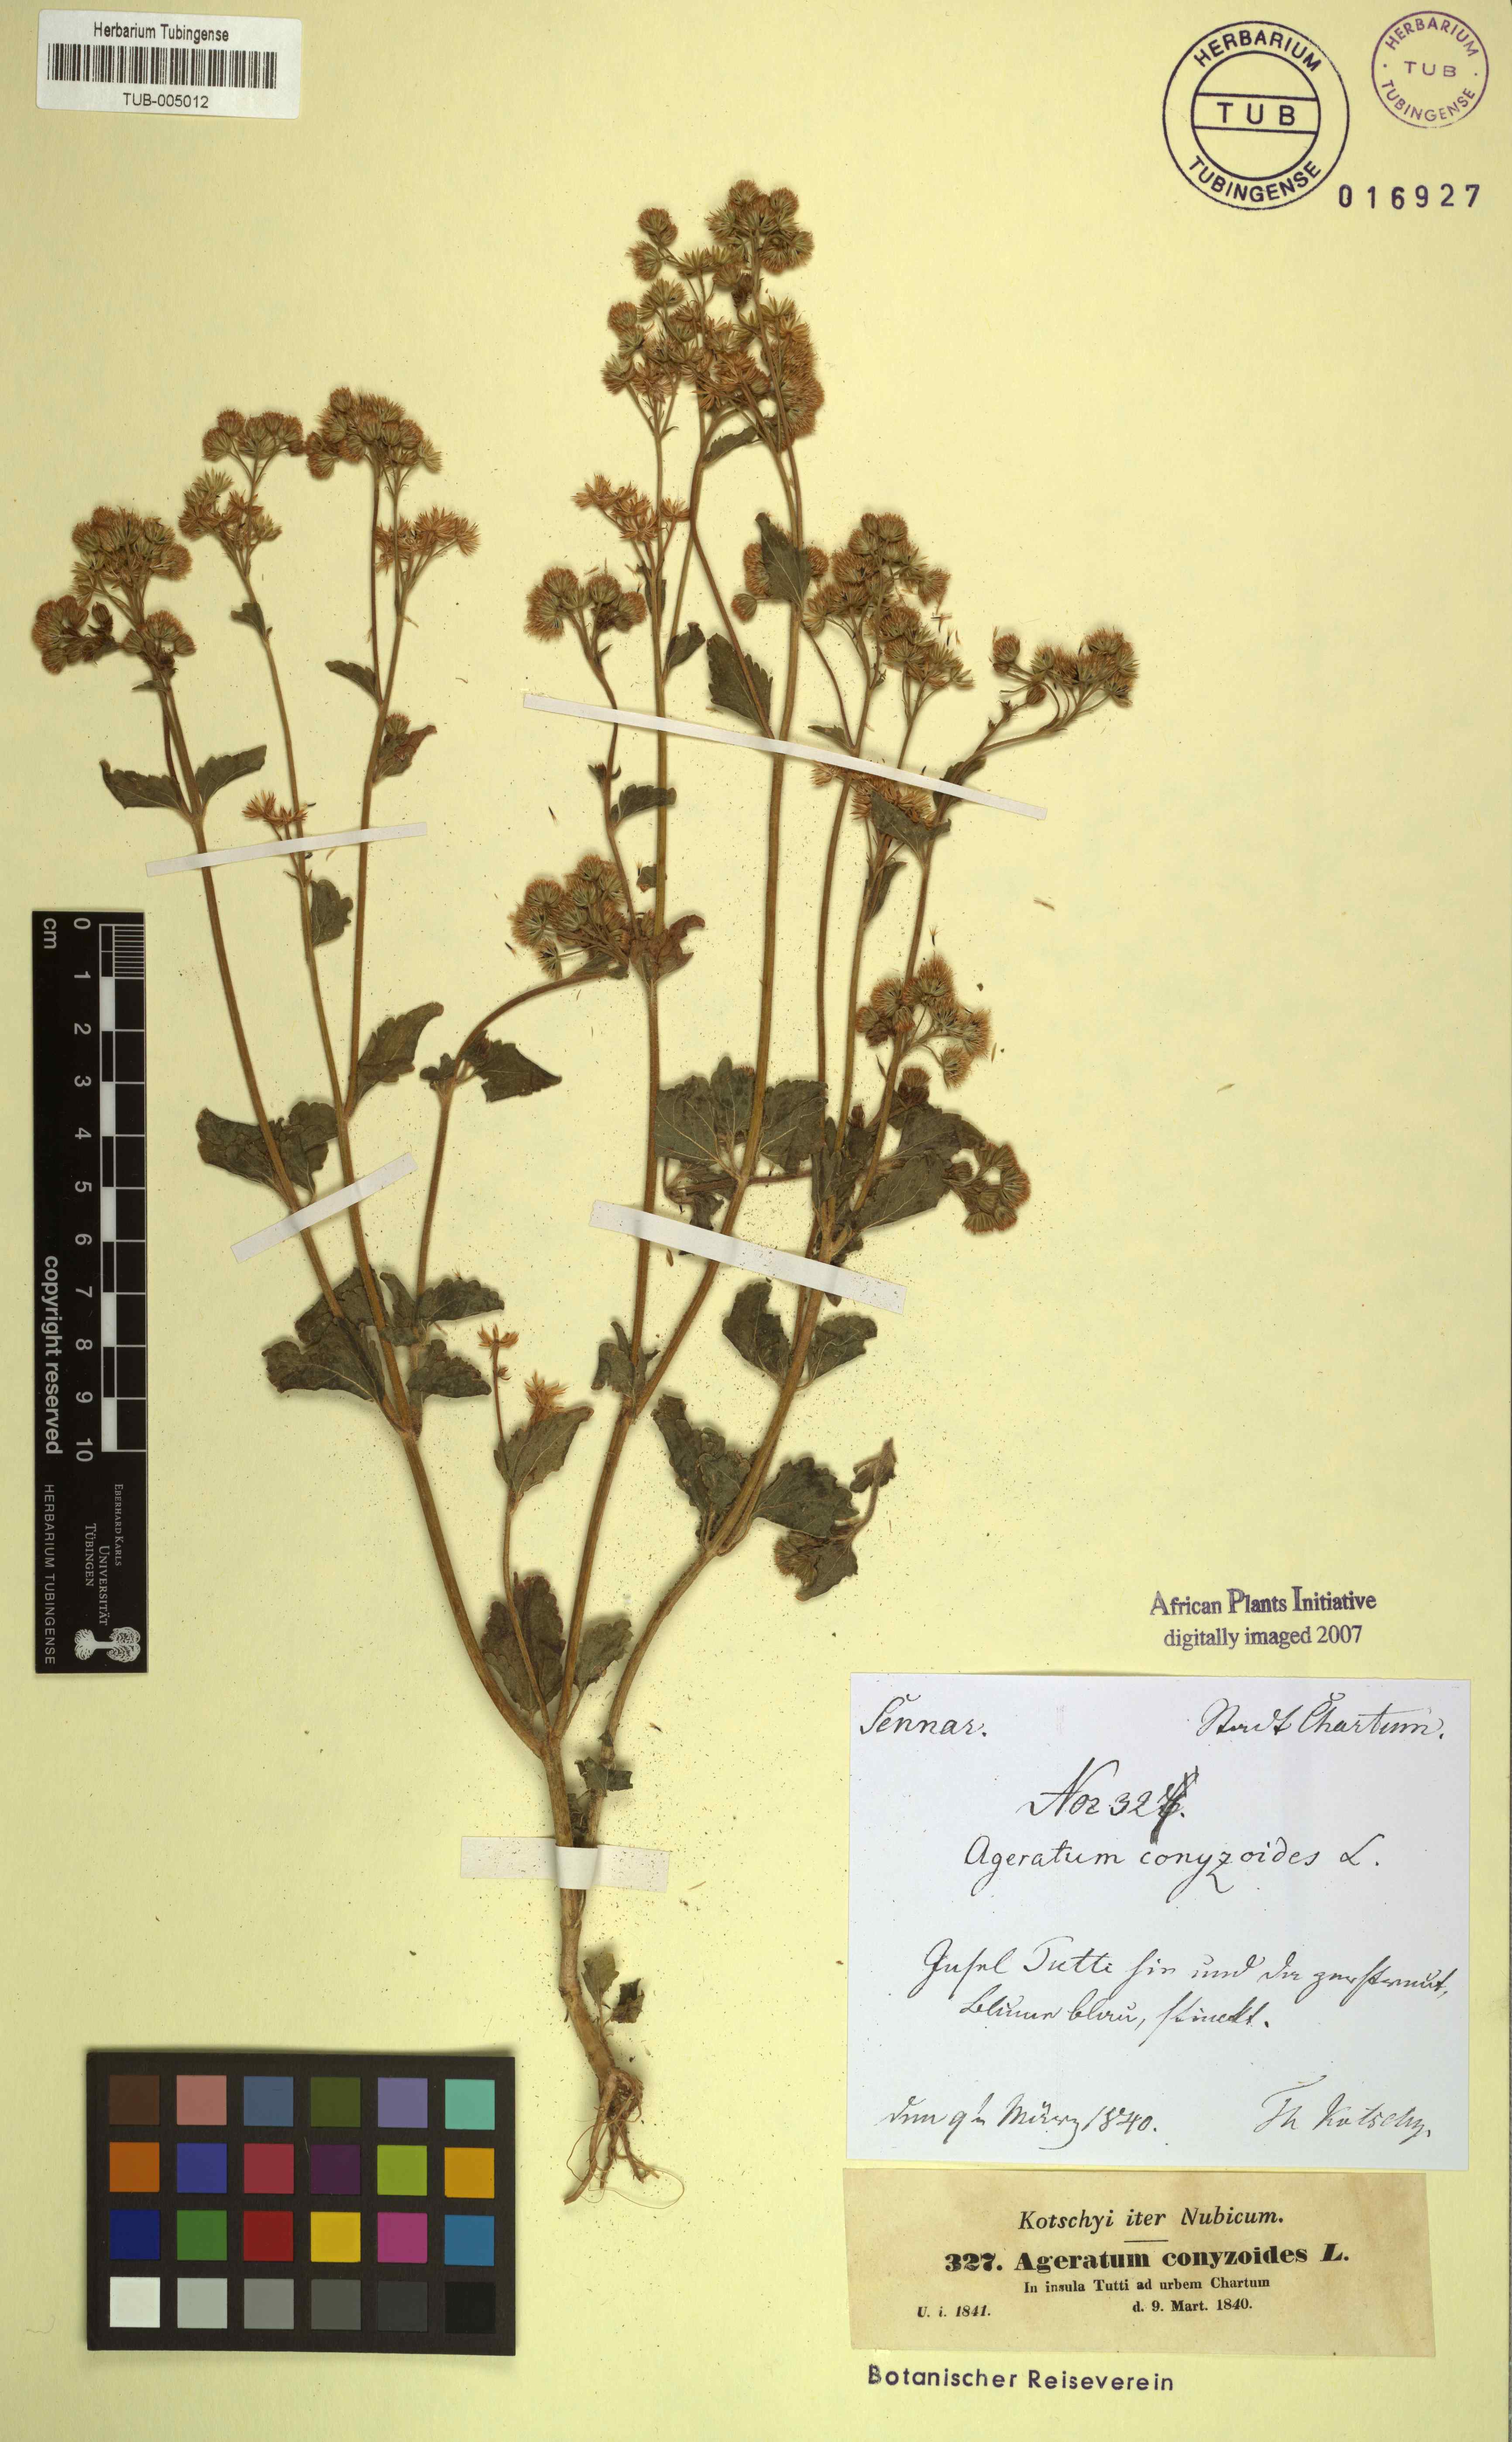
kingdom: Plantae
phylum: Tracheophyta
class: Magnoliopsida
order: Asterales
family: Asteraceae
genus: Ageratum
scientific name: Ageratum conyzoides
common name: Tropical whiteweed
